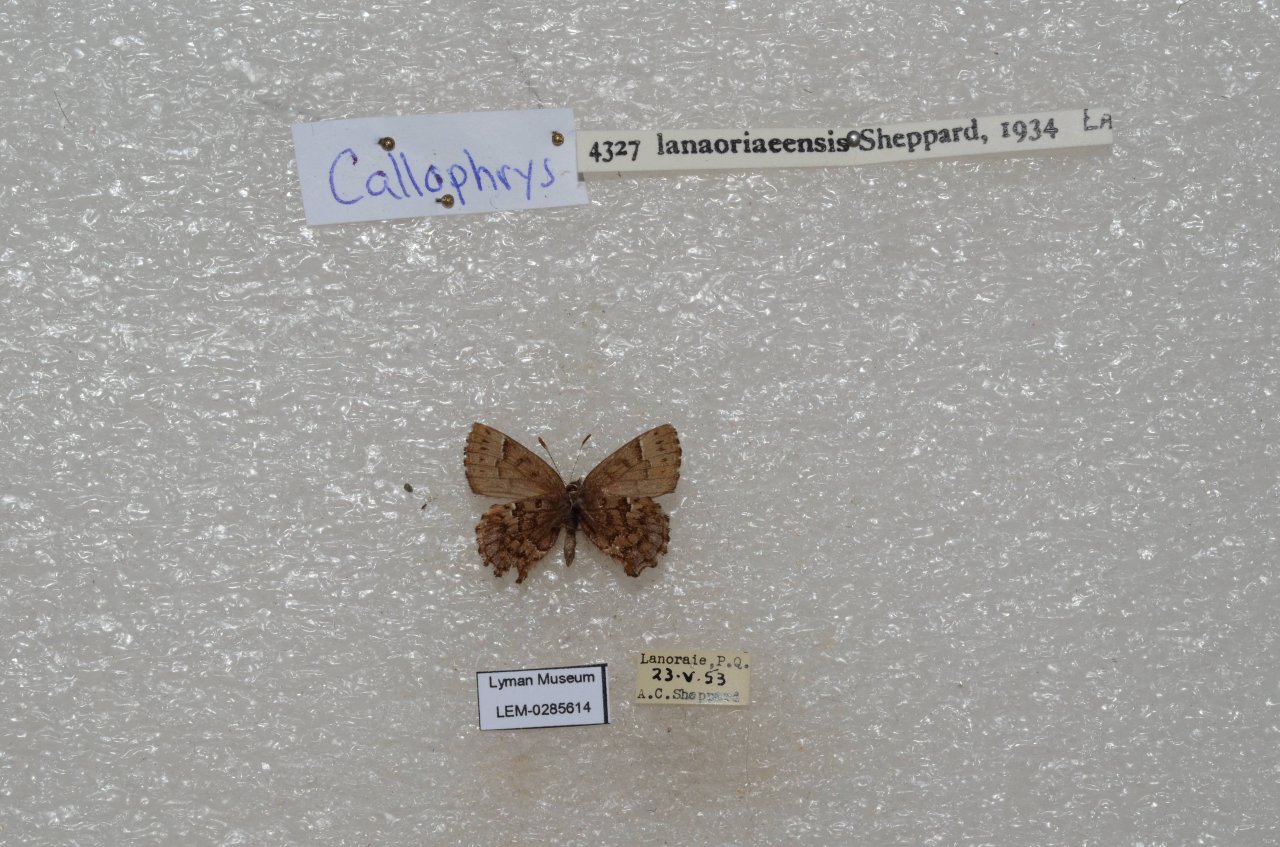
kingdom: Animalia
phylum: Arthropoda
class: Insecta
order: Lepidoptera
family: Lycaenidae
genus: Incisalia
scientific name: Incisalia lanoraieensis
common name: Bog Elfin
